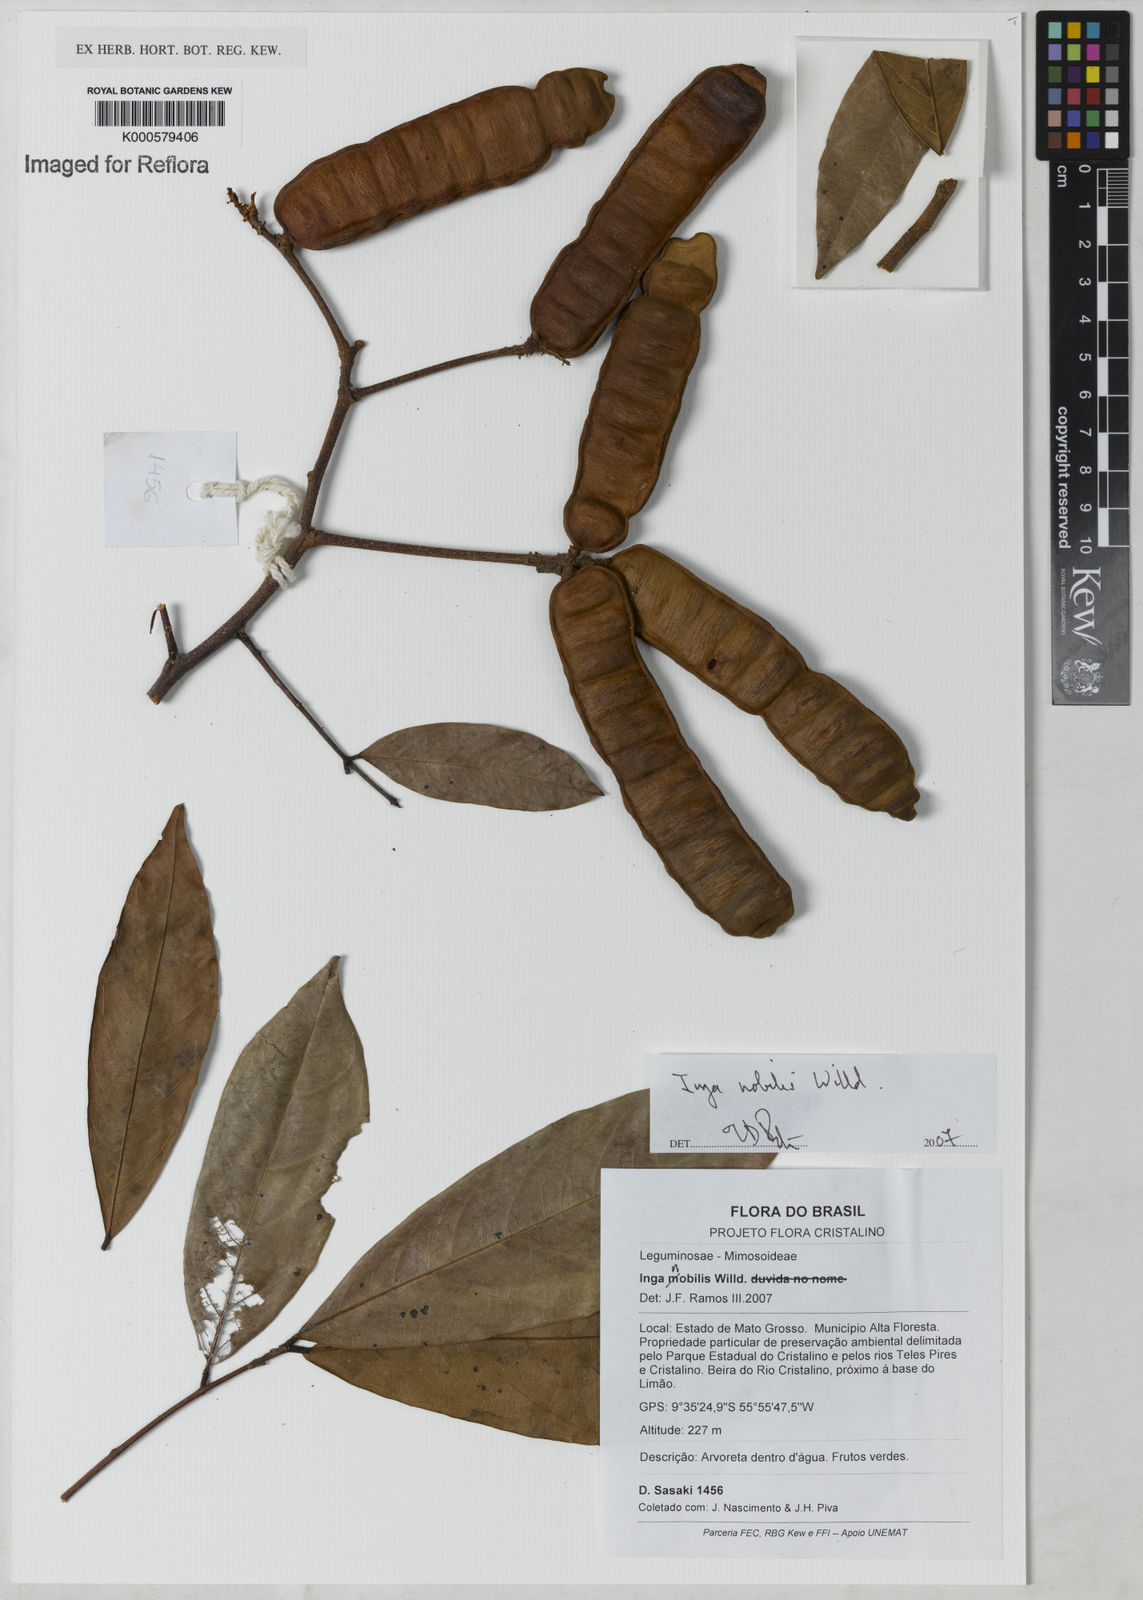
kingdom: Plantae
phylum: Tracheophyta
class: Magnoliopsida
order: Fabales
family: Fabaceae
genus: Inga
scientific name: Inga nobilis
